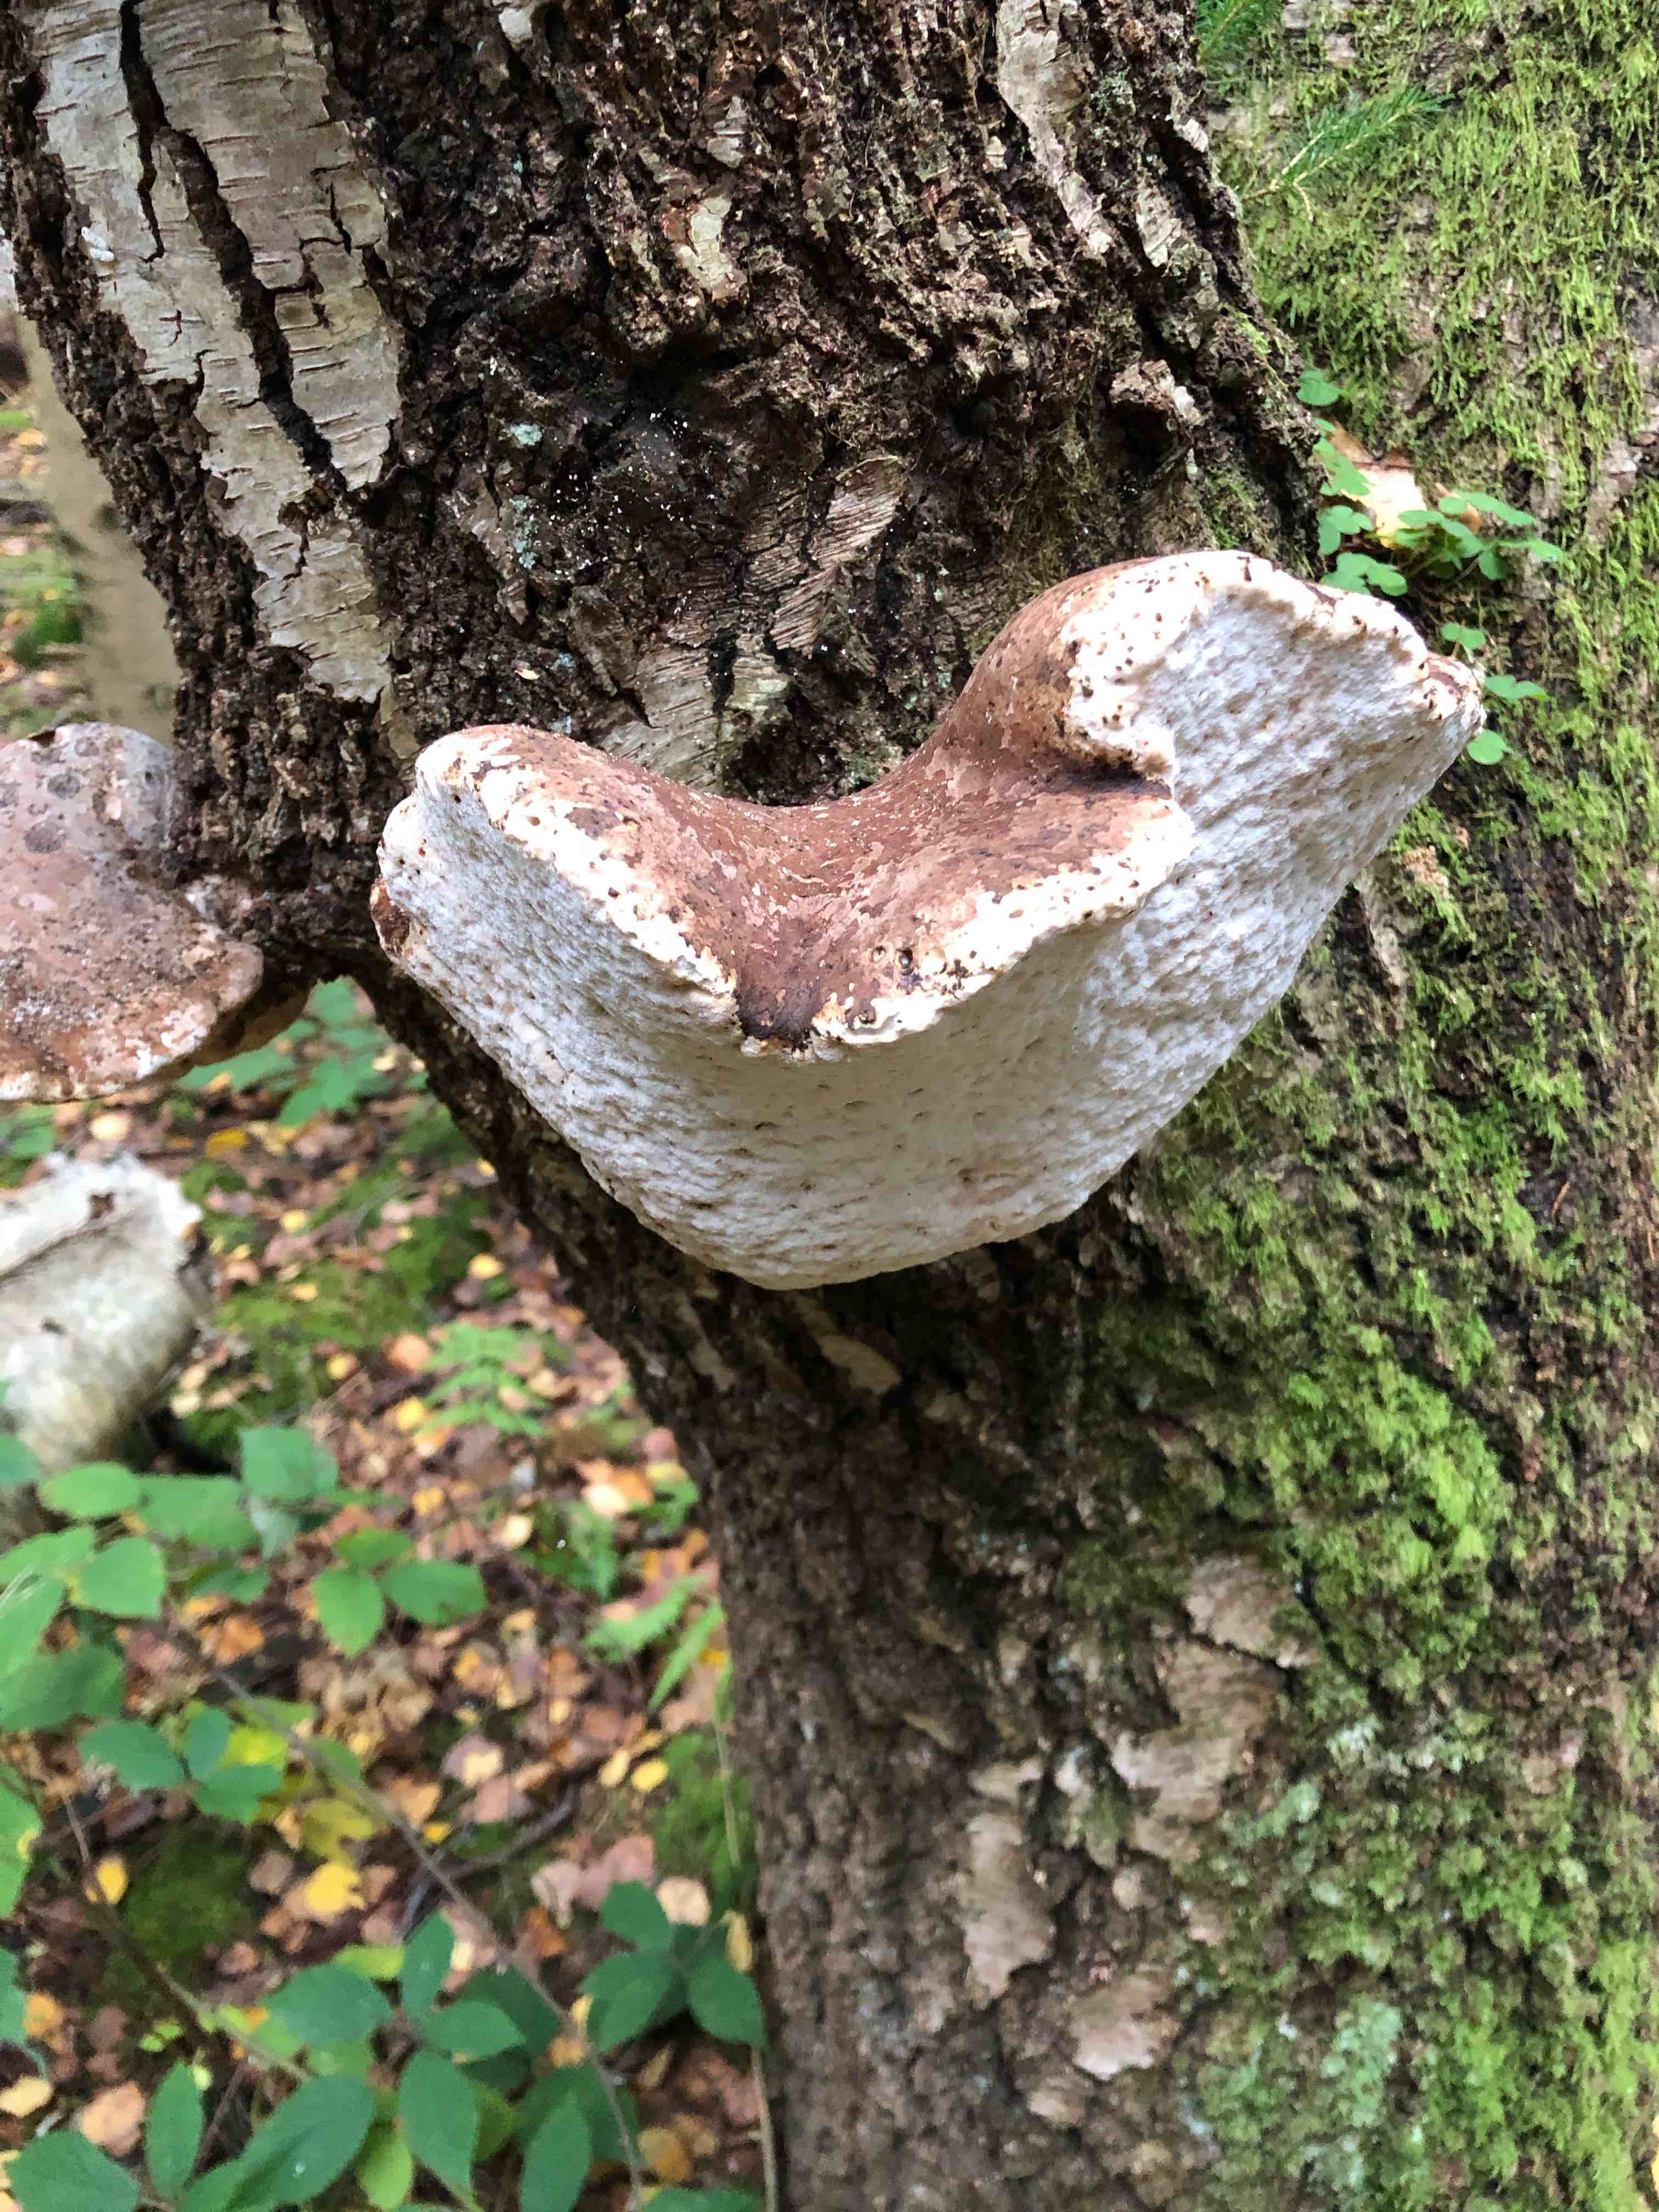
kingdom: Fungi
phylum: Basidiomycota
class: Agaricomycetes
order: Polyporales
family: Fomitopsidaceae
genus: Fomitopsis
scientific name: Fomitopsis betulina
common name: birkeporesvamp
